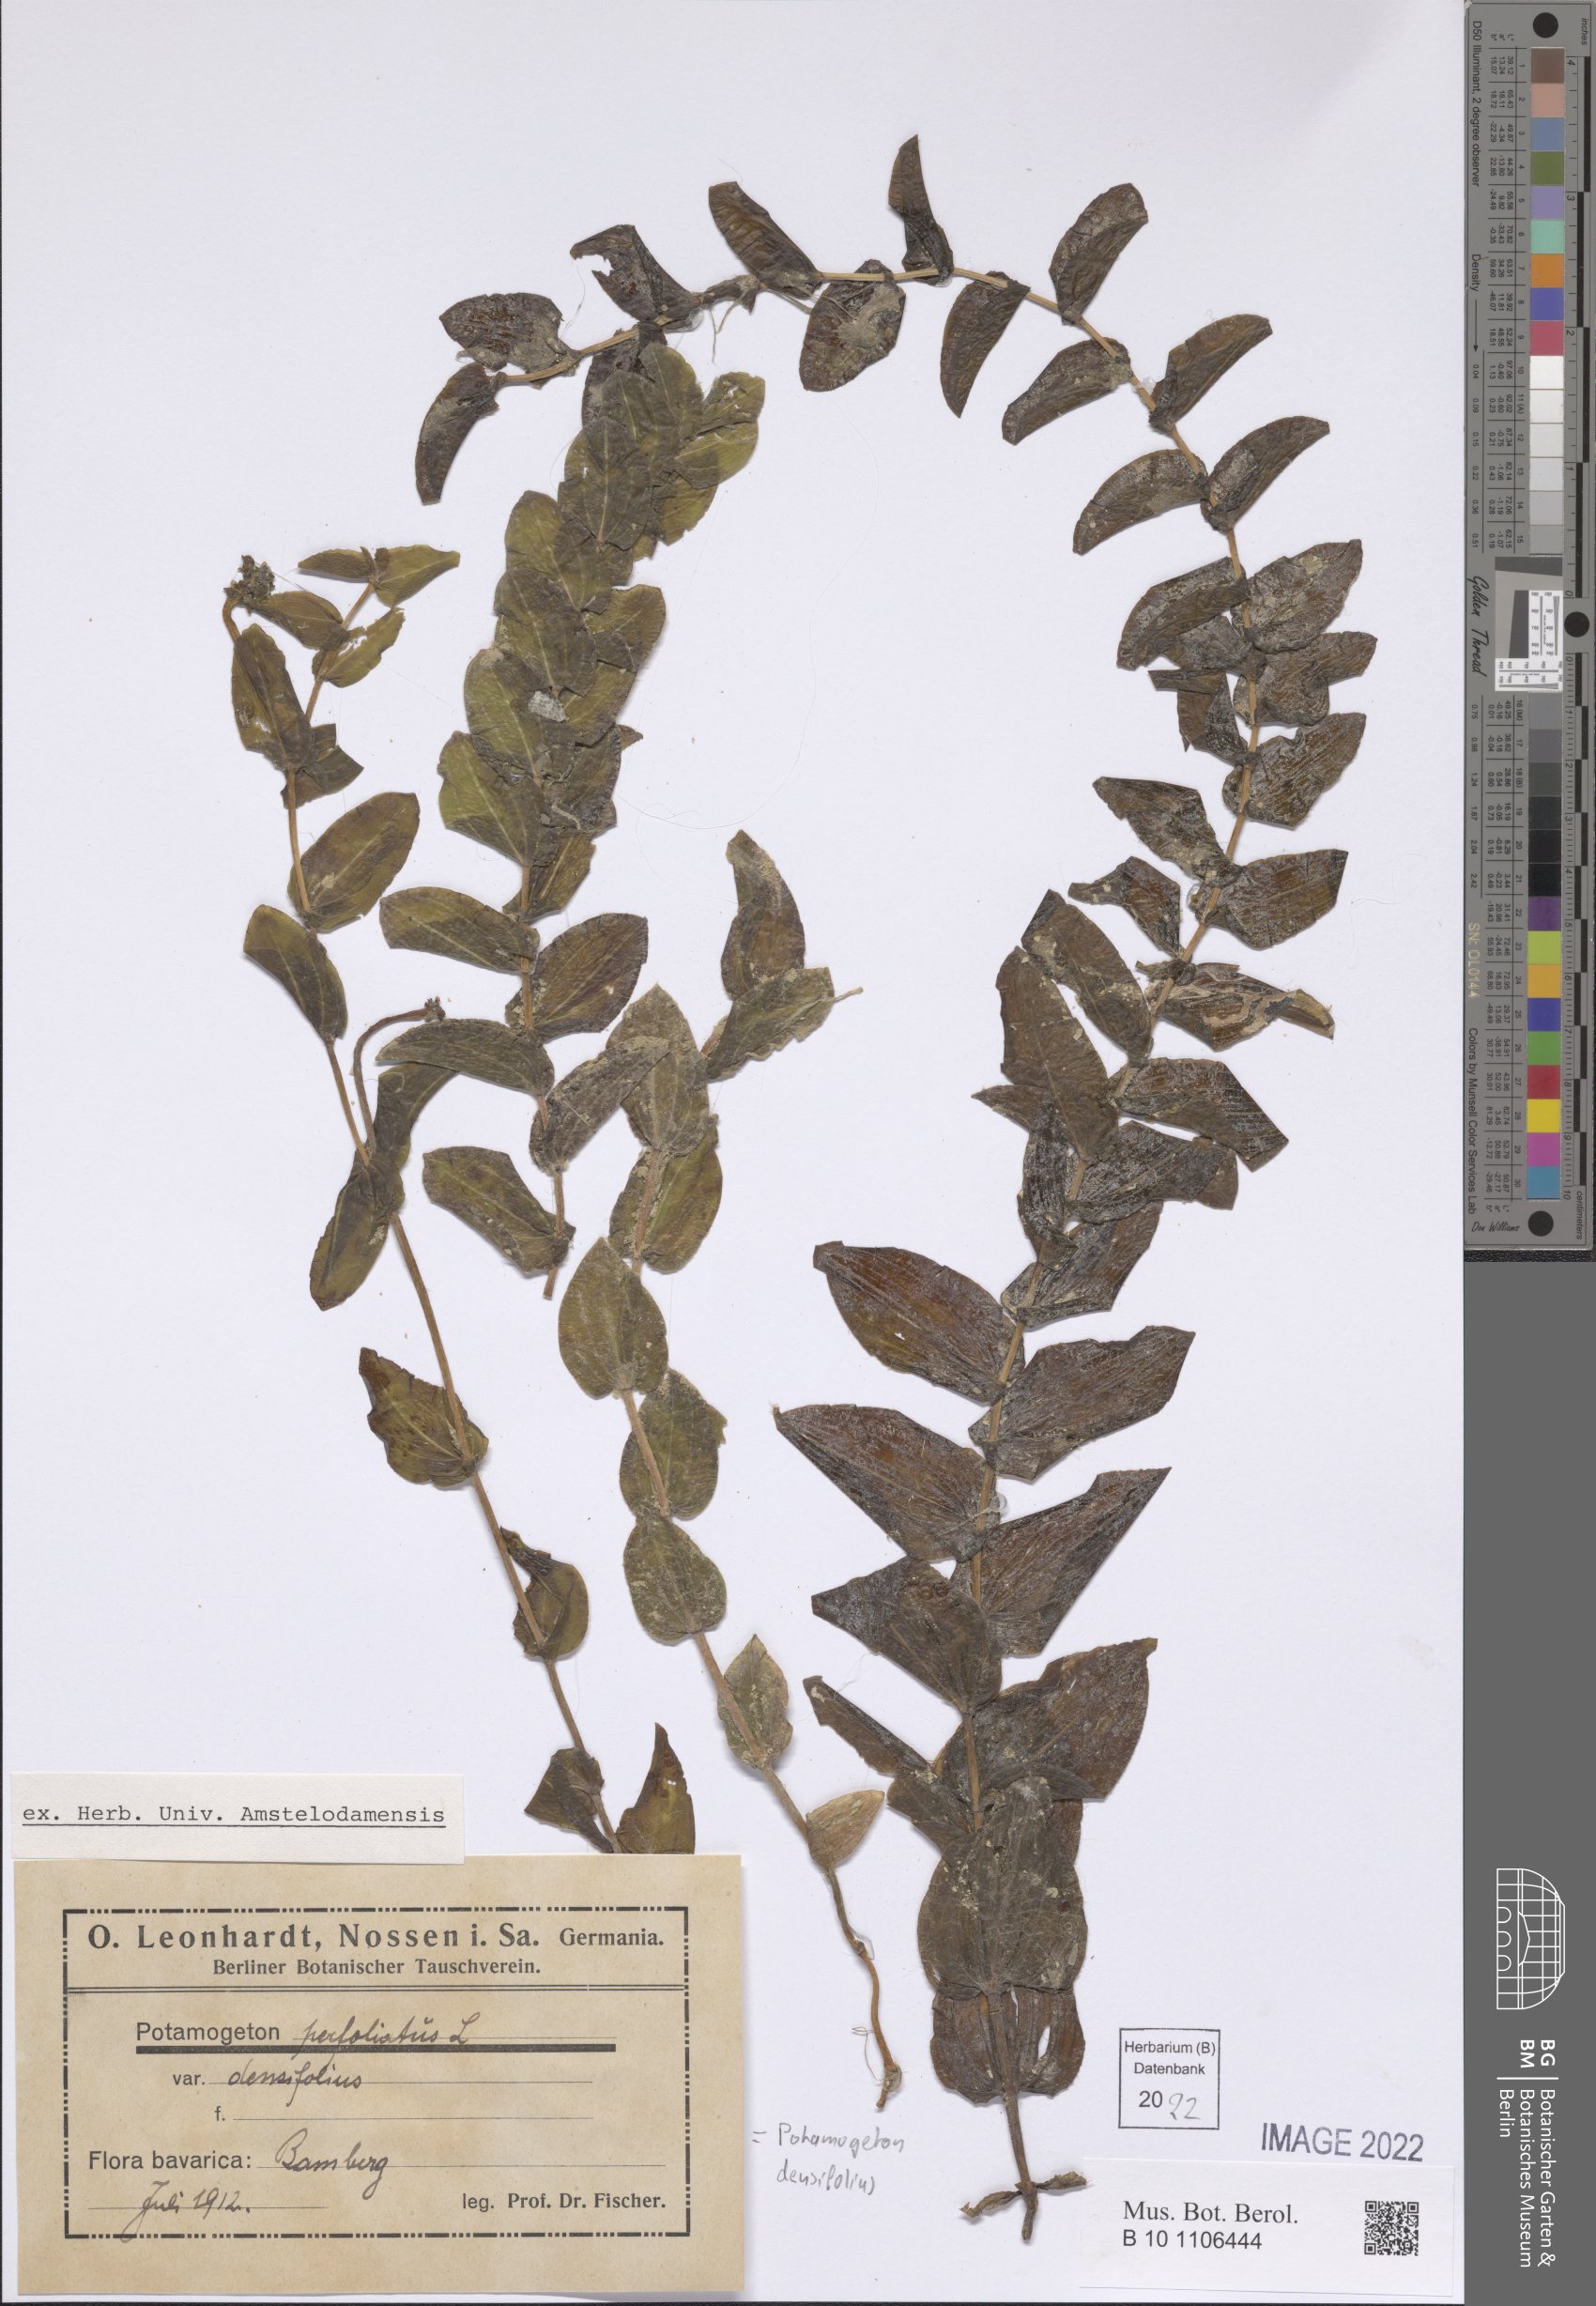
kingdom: Plantae
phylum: Tracheophyta
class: Liliopsida
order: Alismatales
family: Potamogetonaceae
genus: Potamogeton
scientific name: Potamogeton perfoliatus
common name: Perfoliate pondweed
